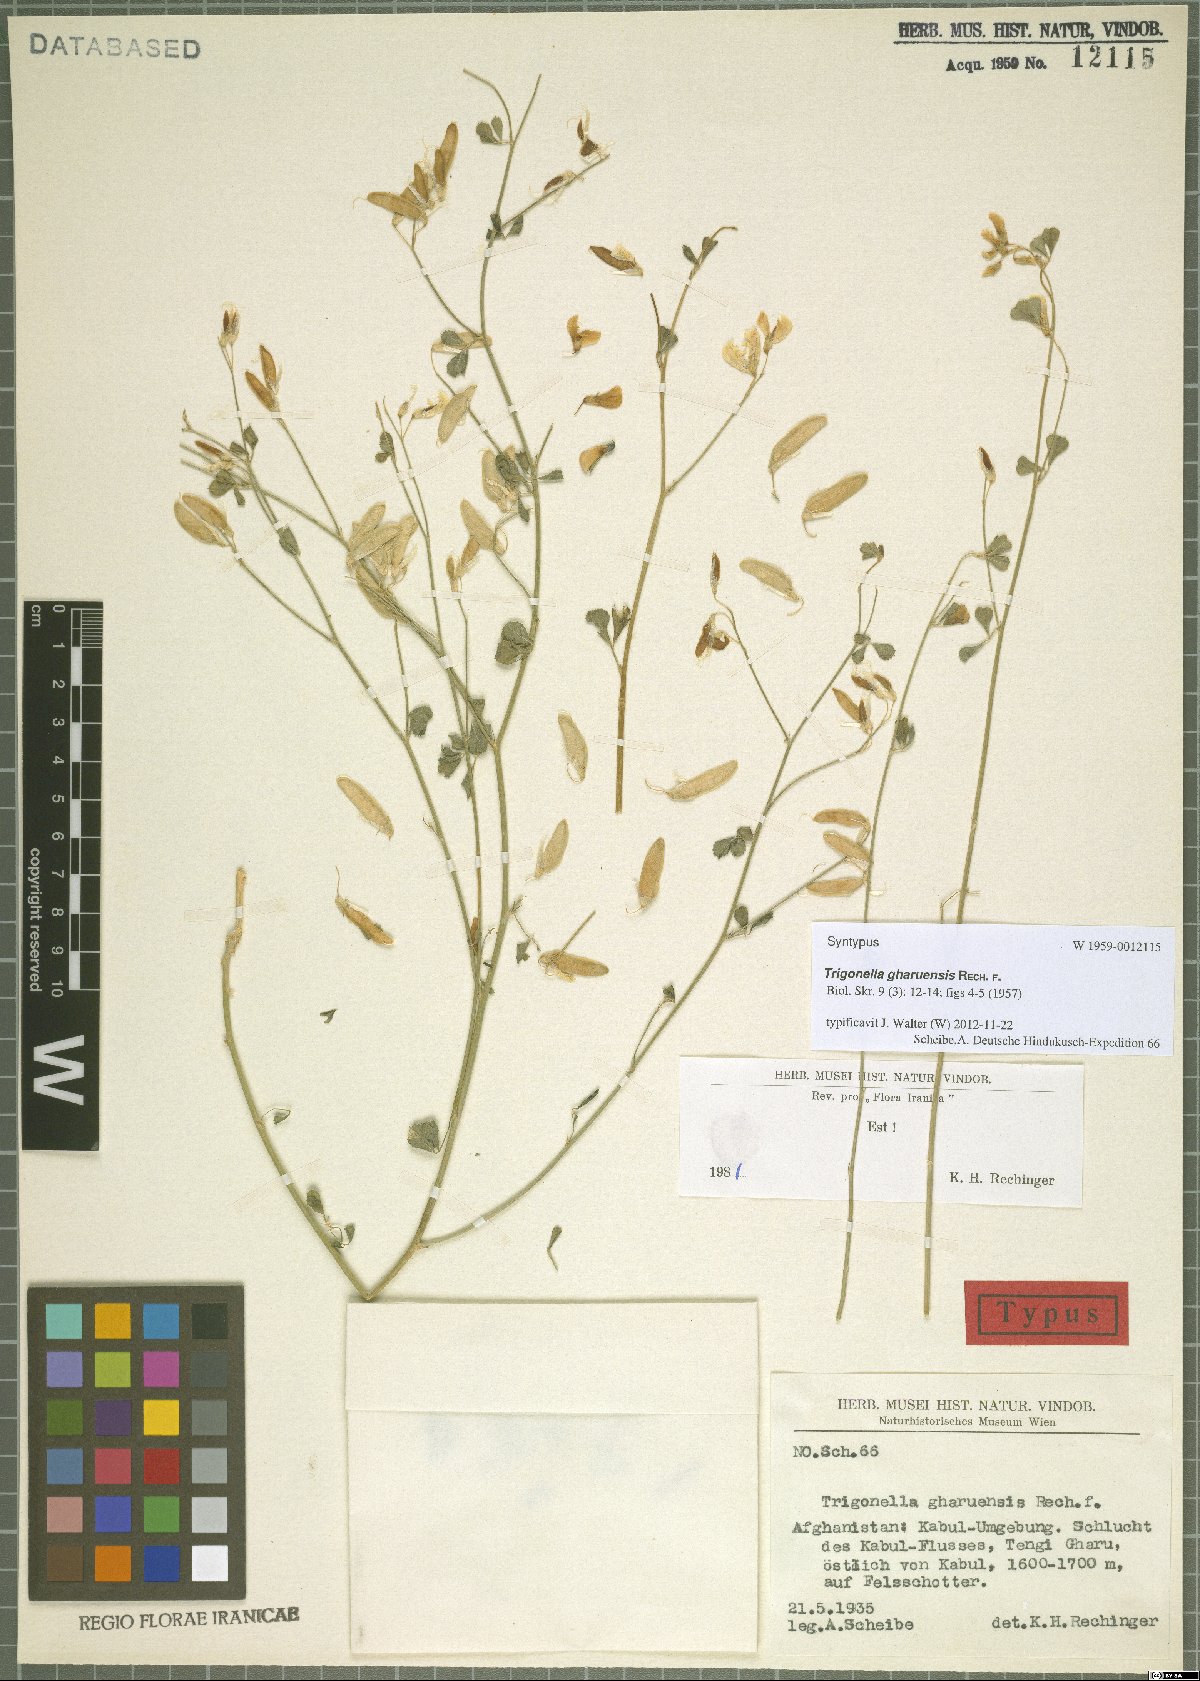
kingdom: Plantae
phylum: Tracheophyta
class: Magnoliopsida
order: Fabales
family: Fabaceae
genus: Trigonella
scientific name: Trigonella gharuensis
